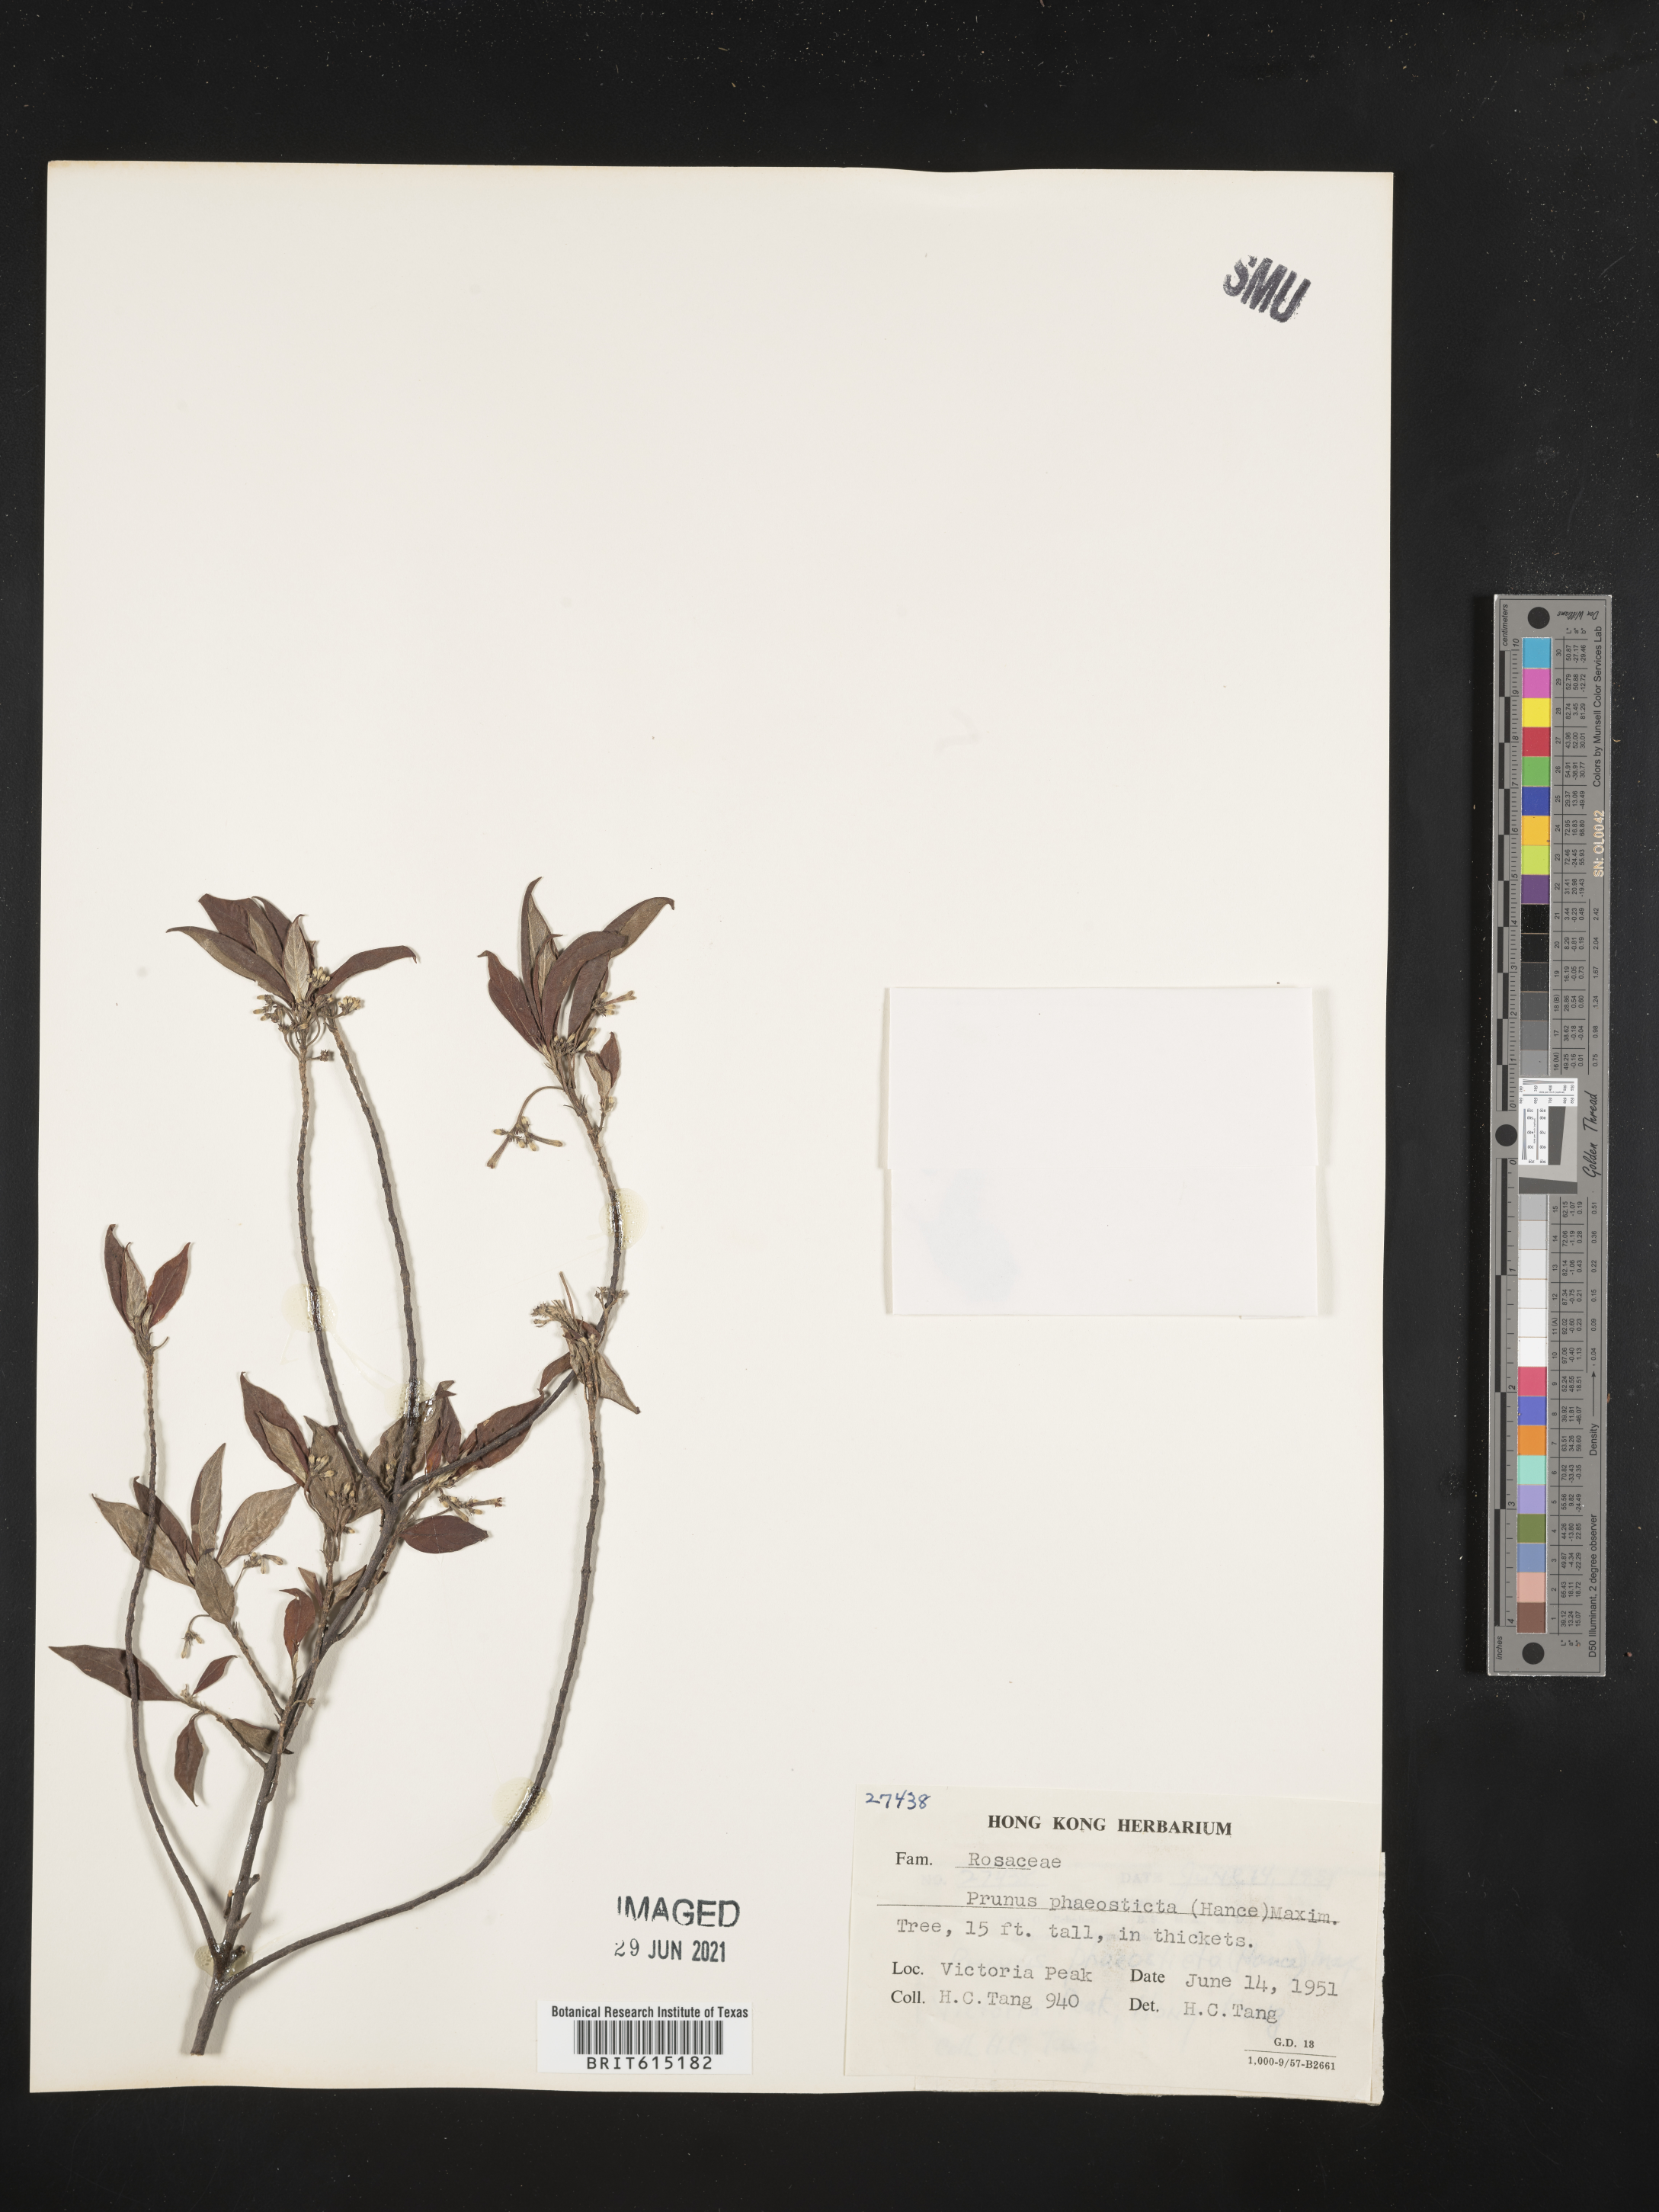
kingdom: Plantae
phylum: Tracheophyta
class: Magnoliopsida
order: Rosales
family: Rosaceae
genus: Prunus
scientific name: Prunus phaeosticta
